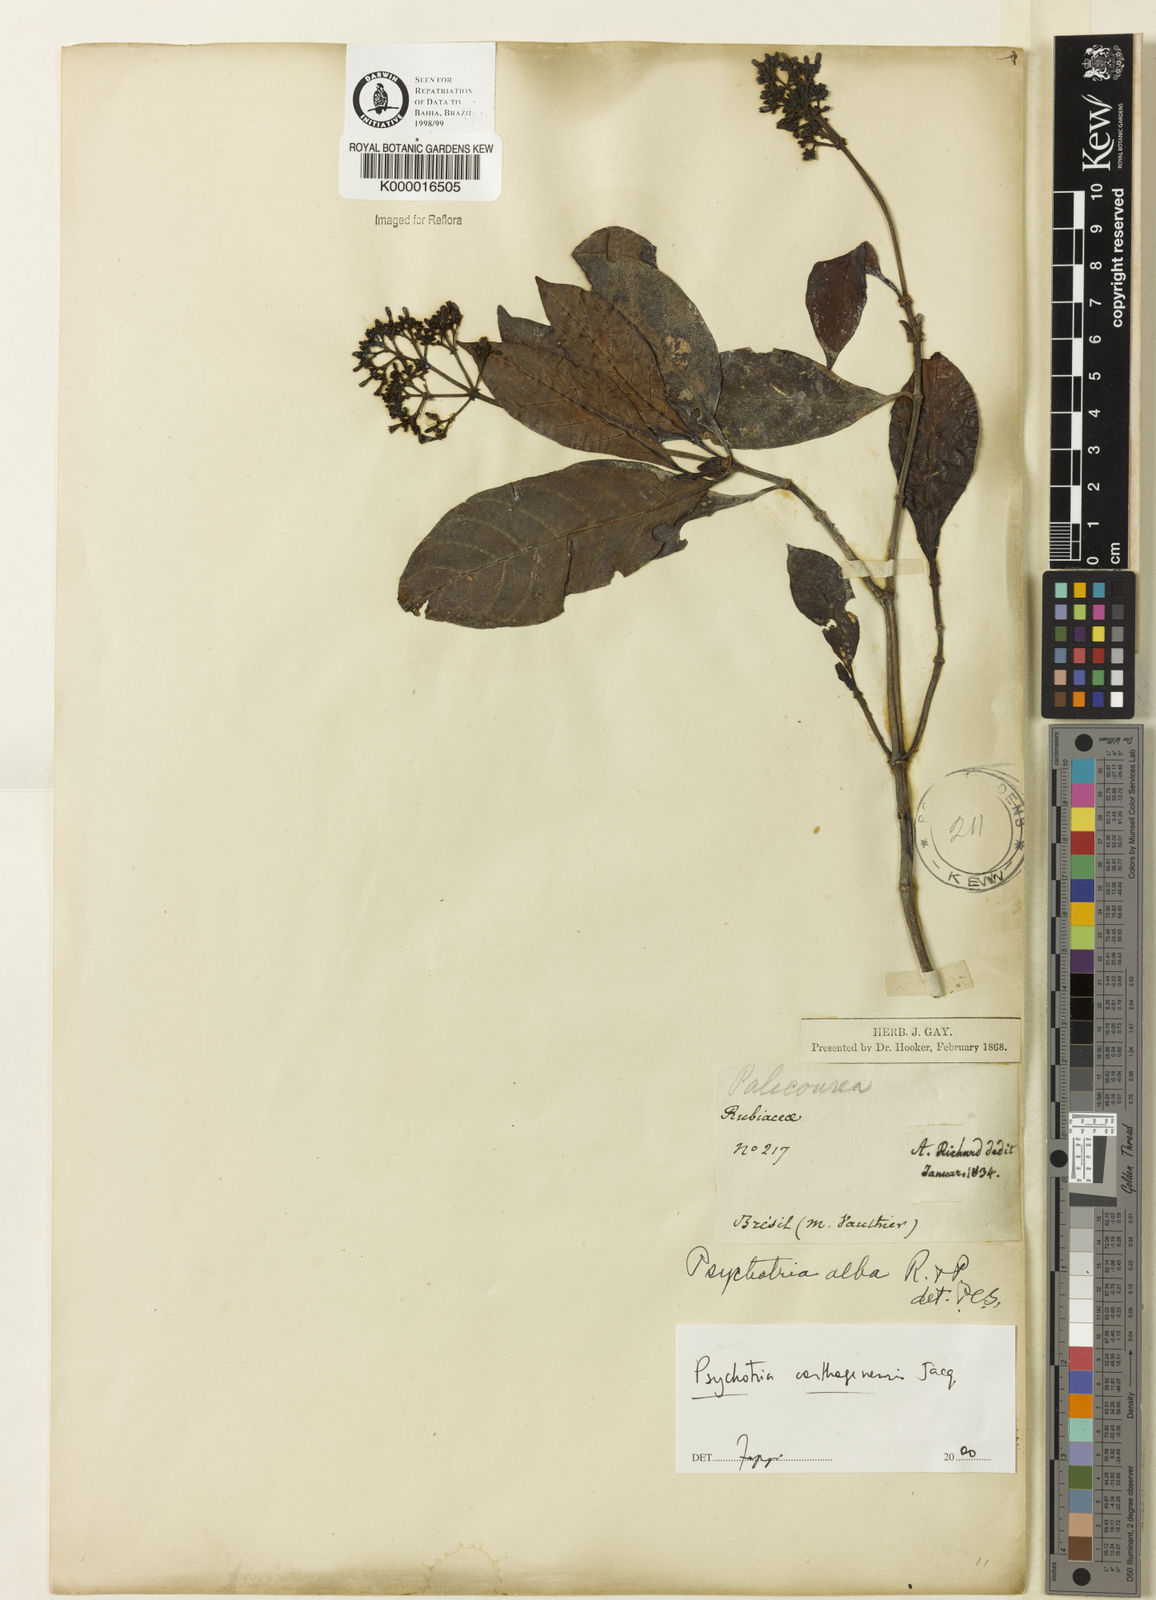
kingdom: Plantae
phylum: Tracheophyta
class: Magnoliopsida
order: Gentianales
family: Rubiaceae
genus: Psychotria
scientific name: Psychotria carthagenensis
